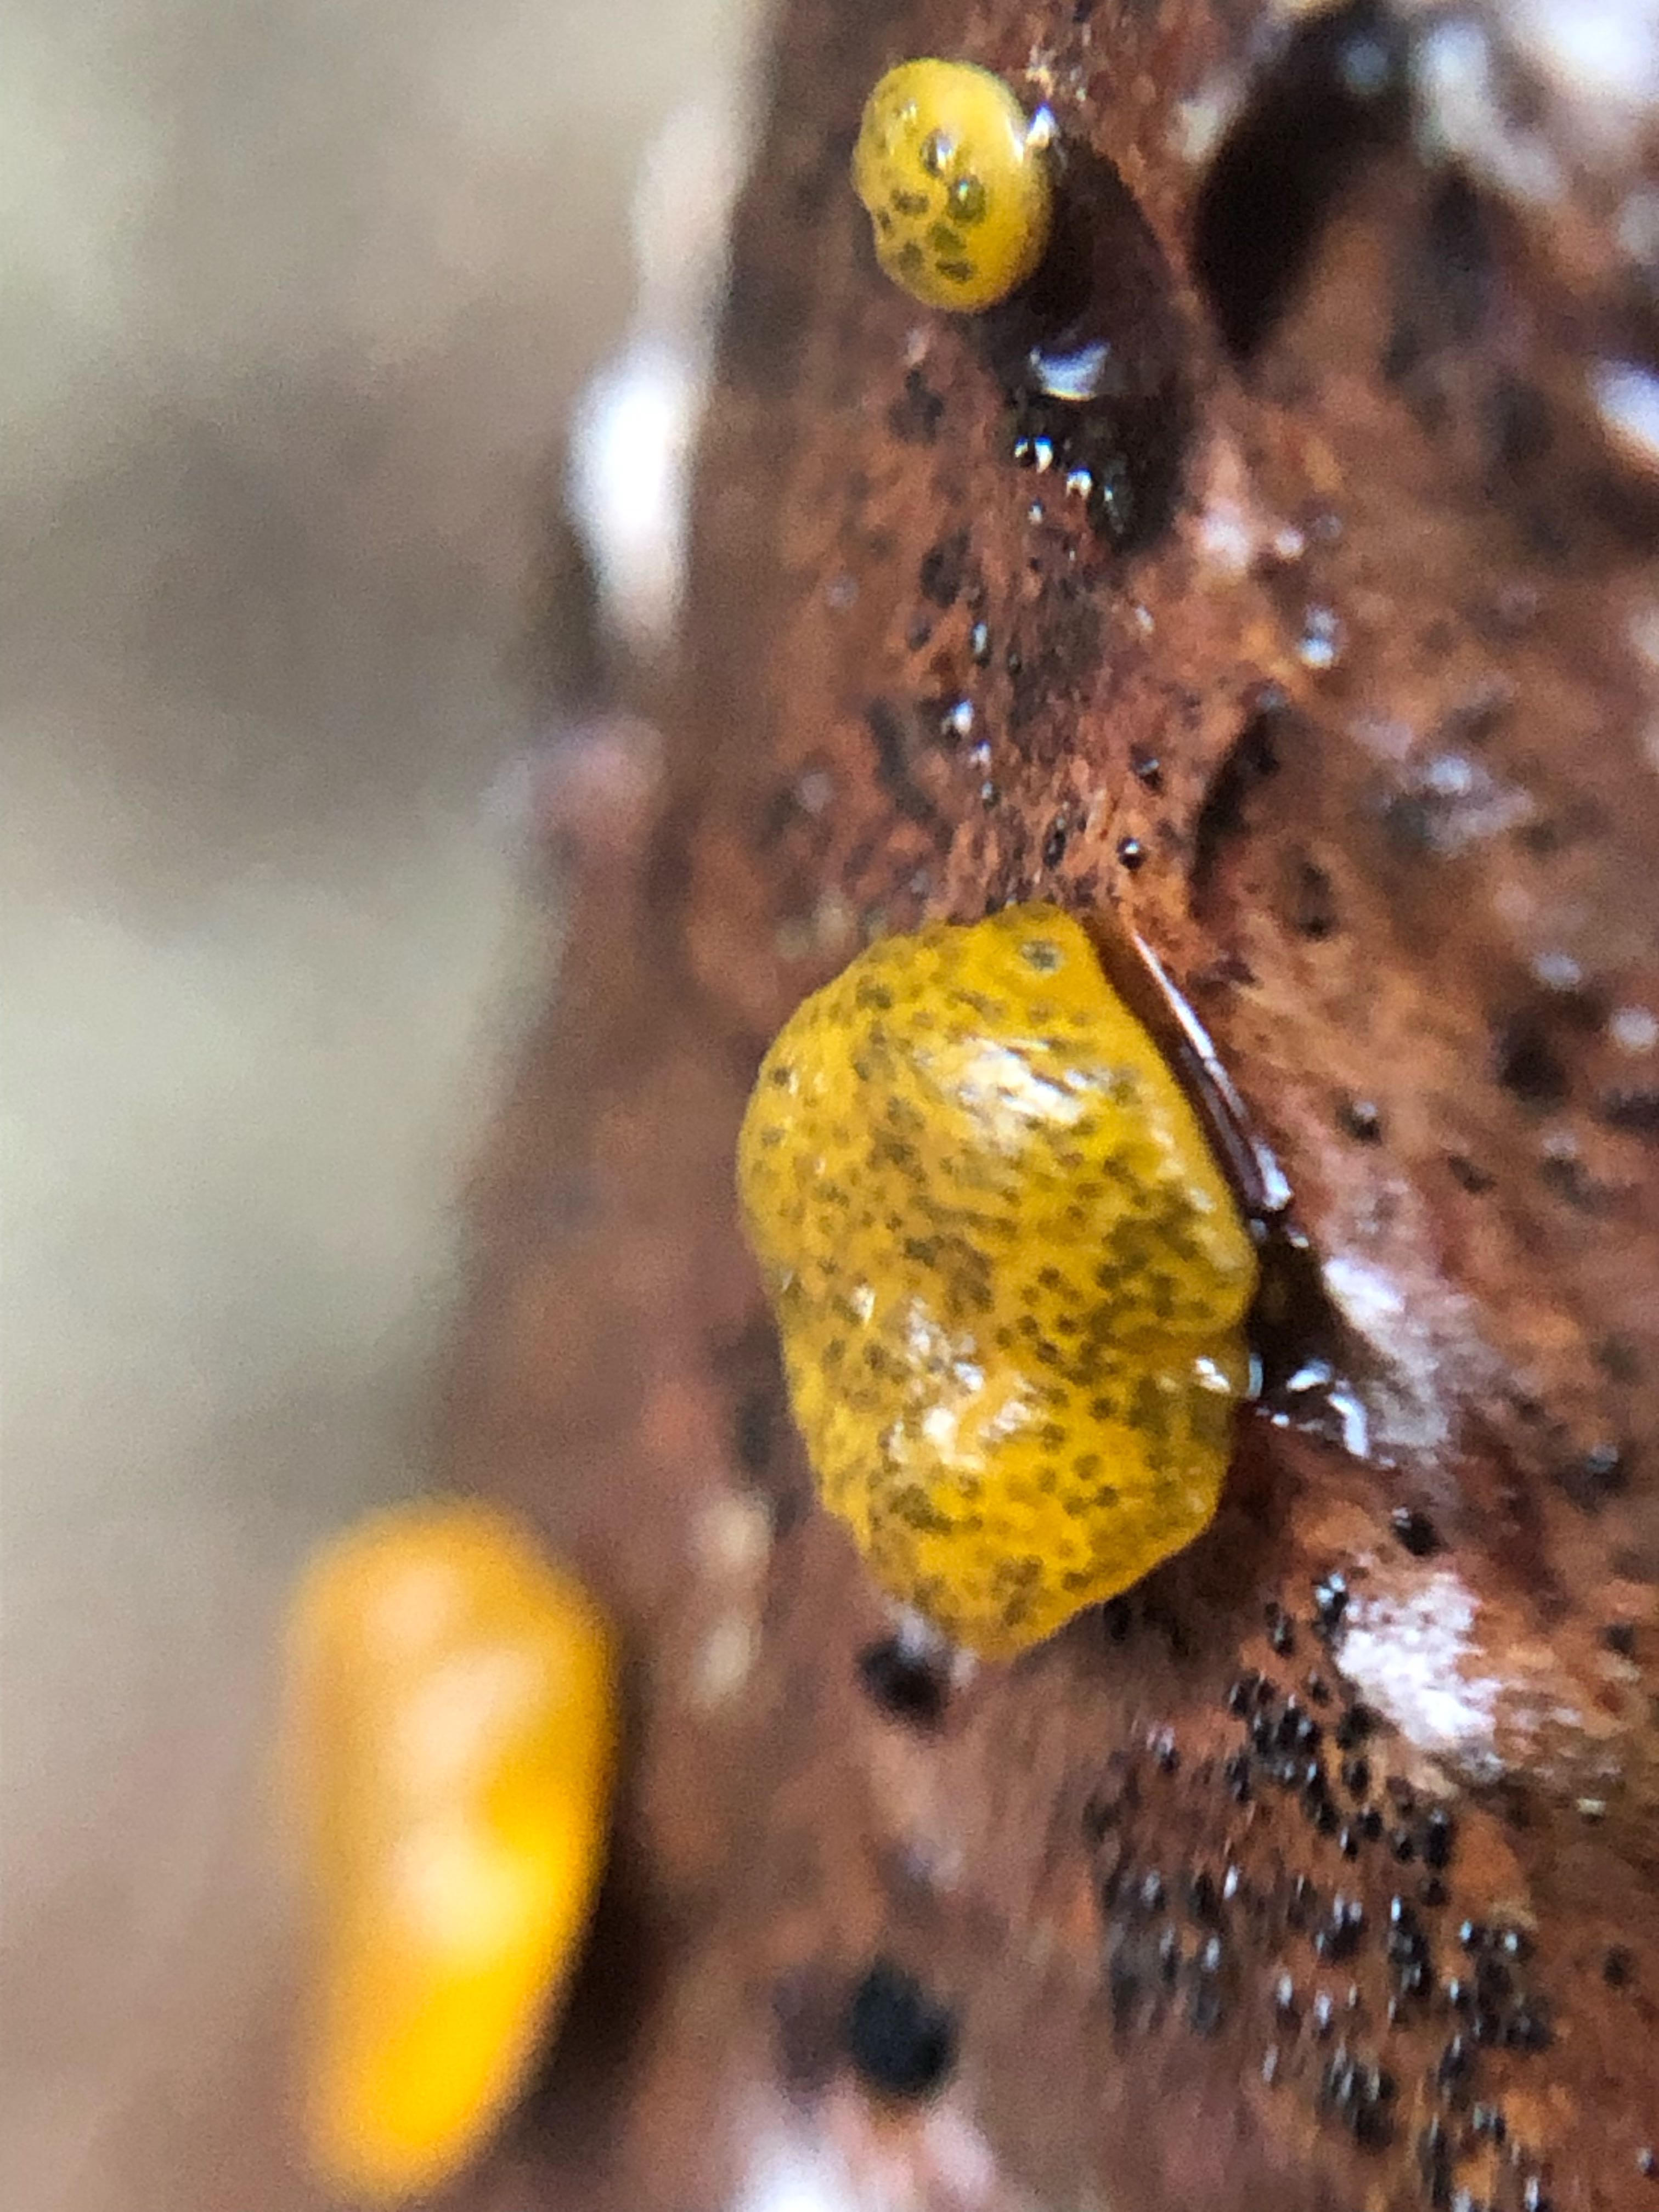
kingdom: Fungi
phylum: Ascomycota
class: Sordariomycetes
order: Hypocreales
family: Hypocreaceae
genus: Trichoderma
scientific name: Trichoderma aureoviride
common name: æggegul kødkerne
